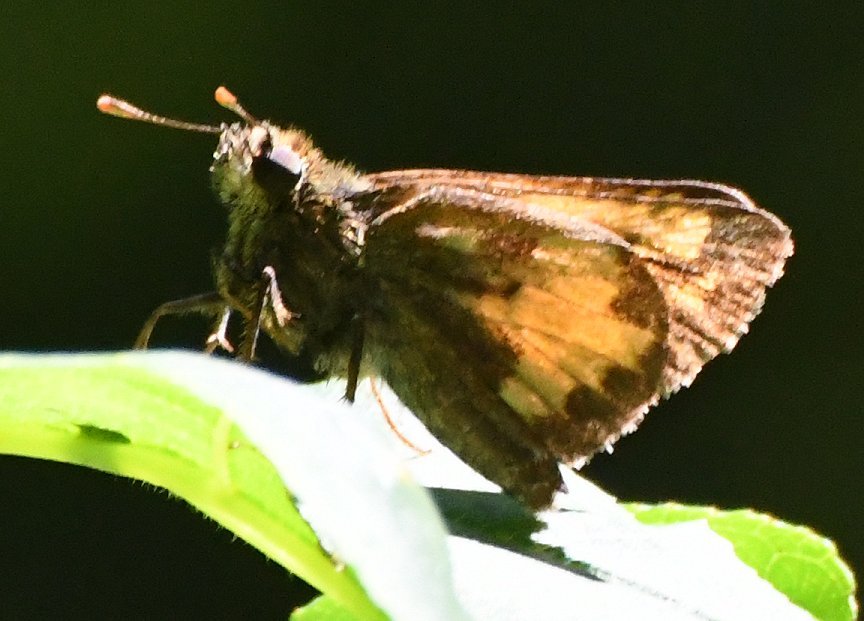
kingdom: Animalia
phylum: Arthropoda
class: Insecta
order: Lepidoptera
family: Hesperiidae
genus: Polites
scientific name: Polites coras
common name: Peck's Skipper
